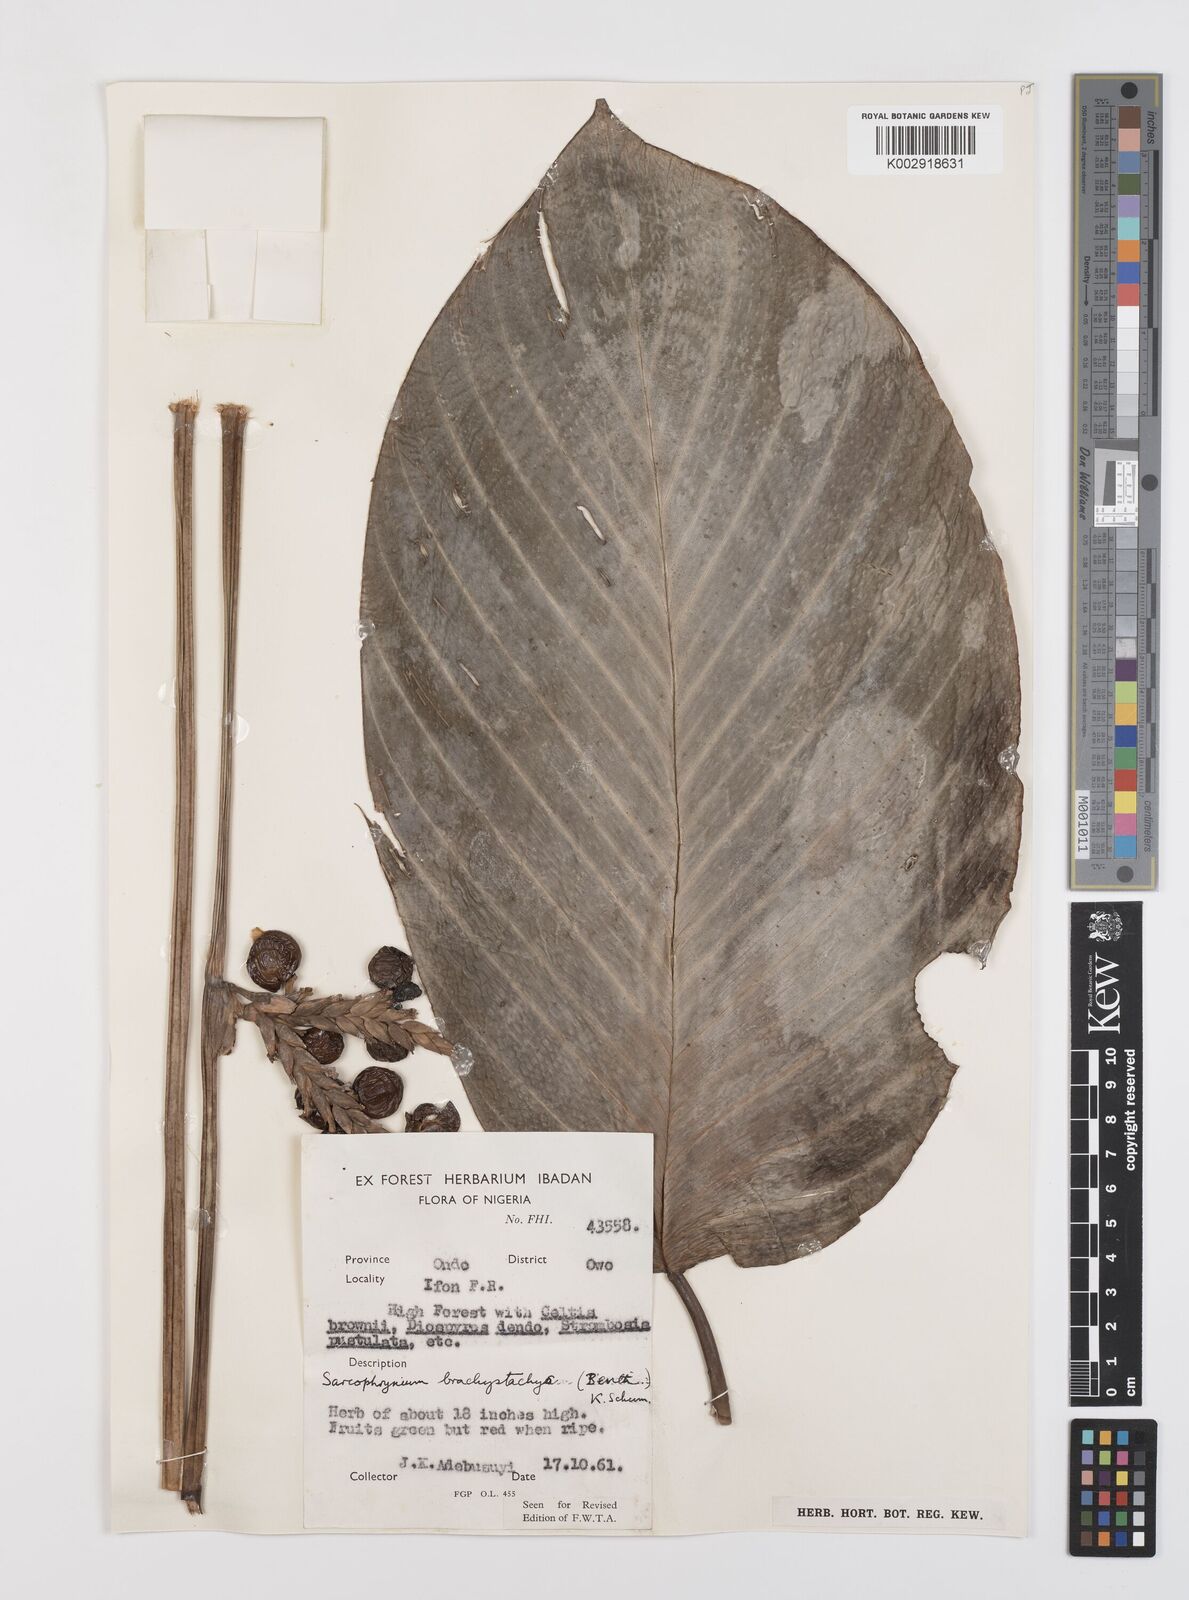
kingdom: Plantae
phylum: Tracheophyta
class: Liliopsida
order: Zingiberales
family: Marantaceae
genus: Sarcophrynium
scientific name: Sarcophrynium brachystachyum
